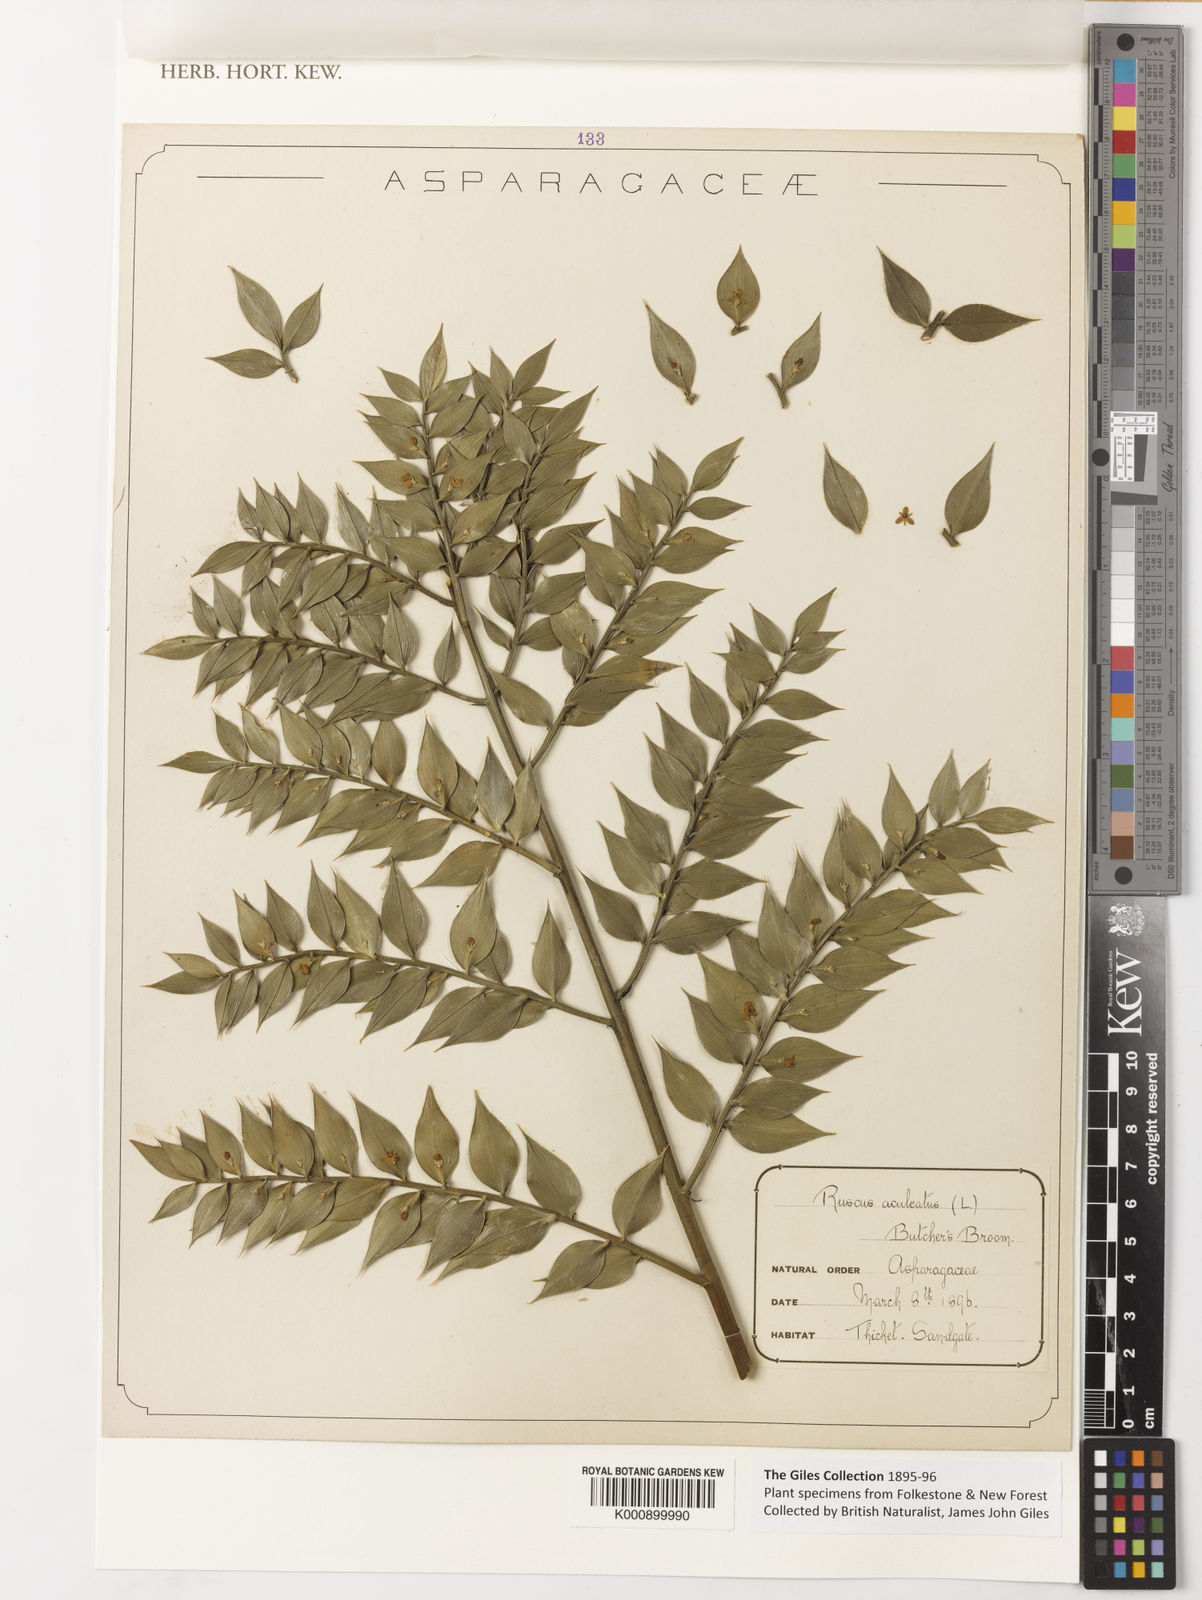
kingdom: Plantae
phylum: Tracheophyta
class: Liliopsida
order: Asparagales
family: Asparagaceae
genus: Ruscus
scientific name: Ruscus aculeatus
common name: Butcher's-broom
